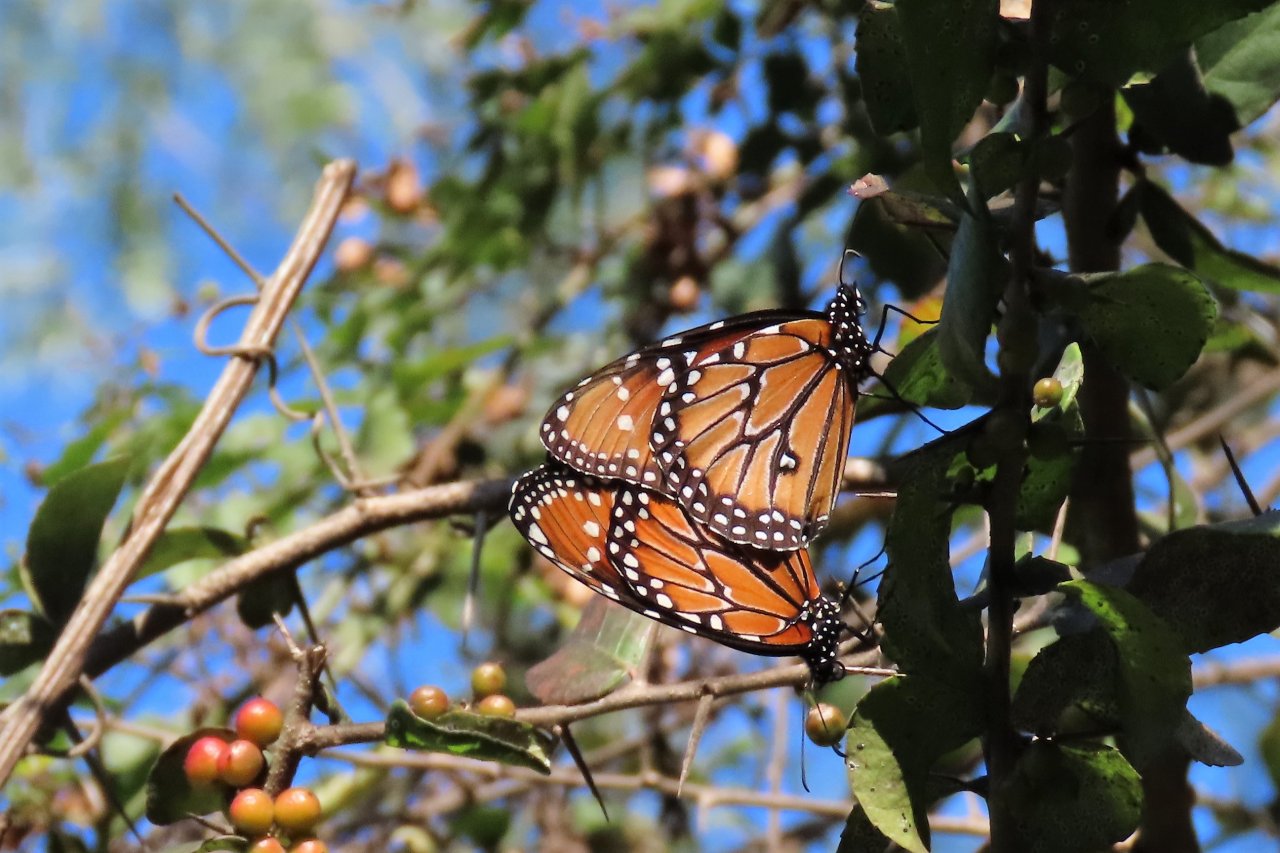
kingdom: Animalia
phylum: Arthropoda
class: Insecta
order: Lepidoptera
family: Nymphalidae
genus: Danaus
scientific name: Danaus gilippus
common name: Queen
